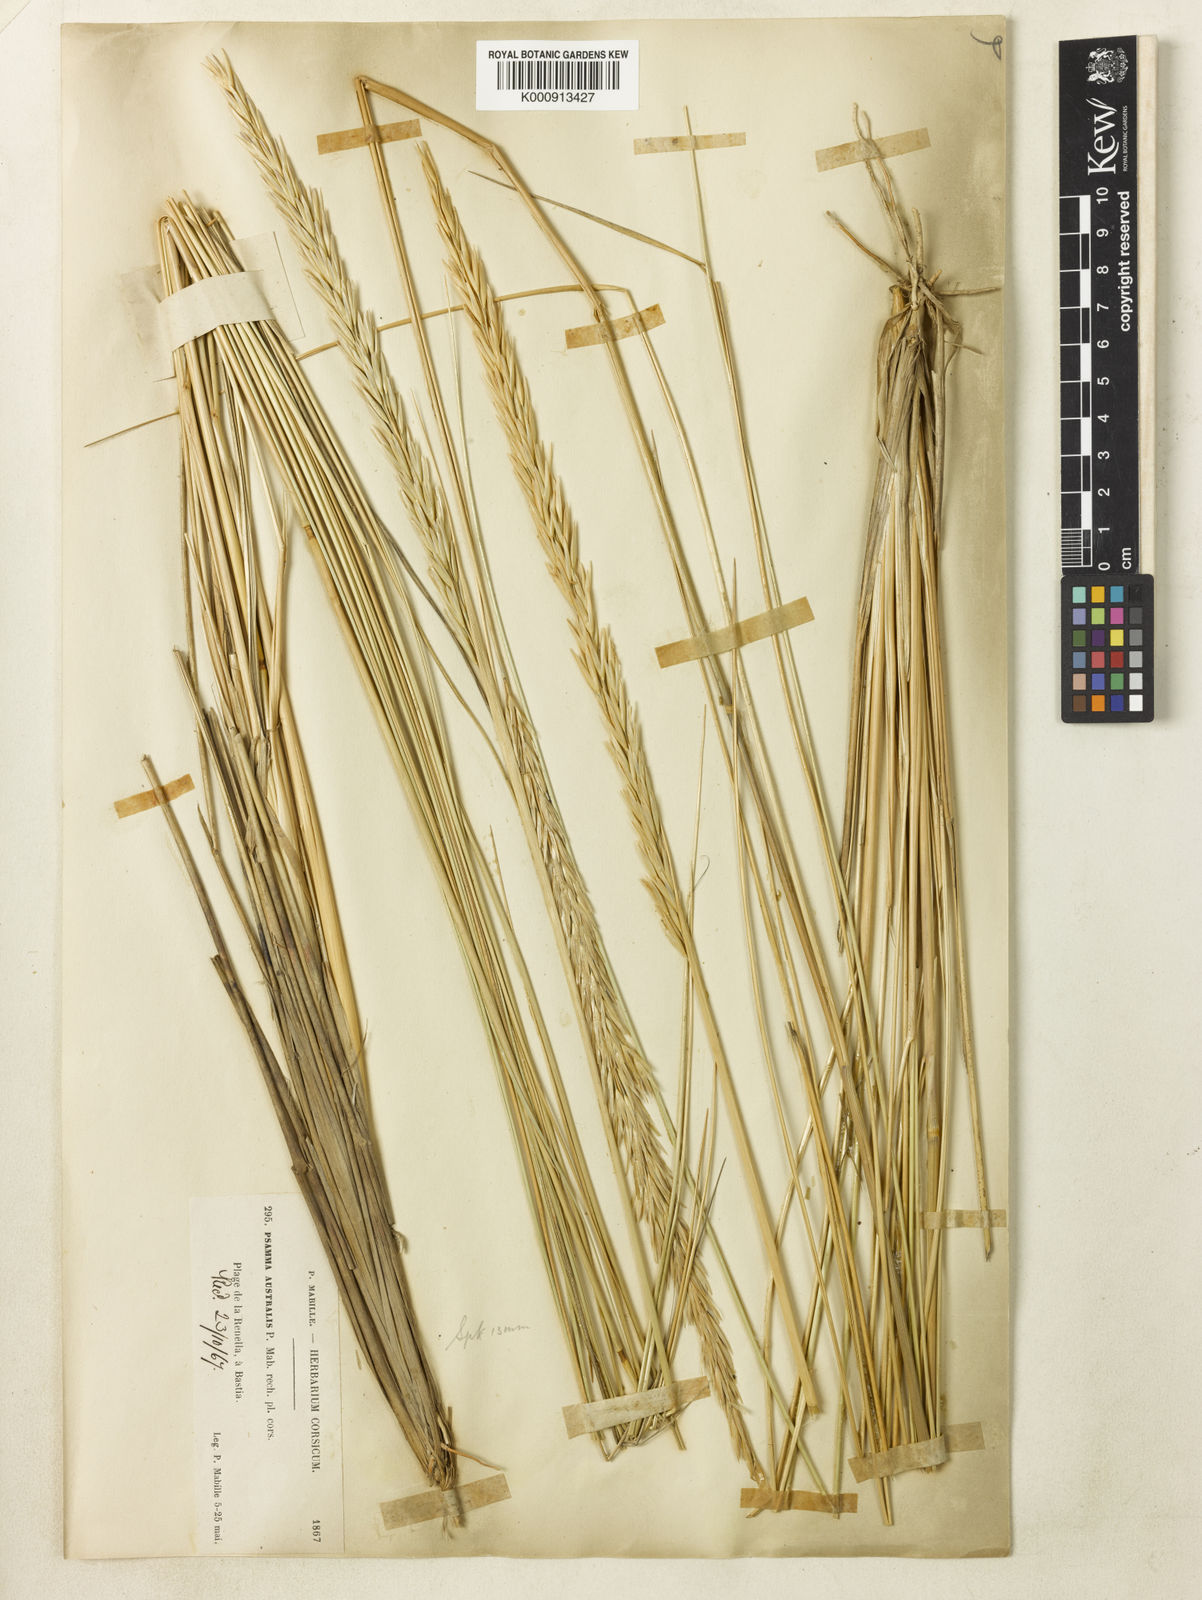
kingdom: Plantae
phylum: Tracheophyta
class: Liliopsida
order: Poales
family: Poaceae
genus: Calamagrostis
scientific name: Calamagrostis arenaria
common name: European beachgrass
